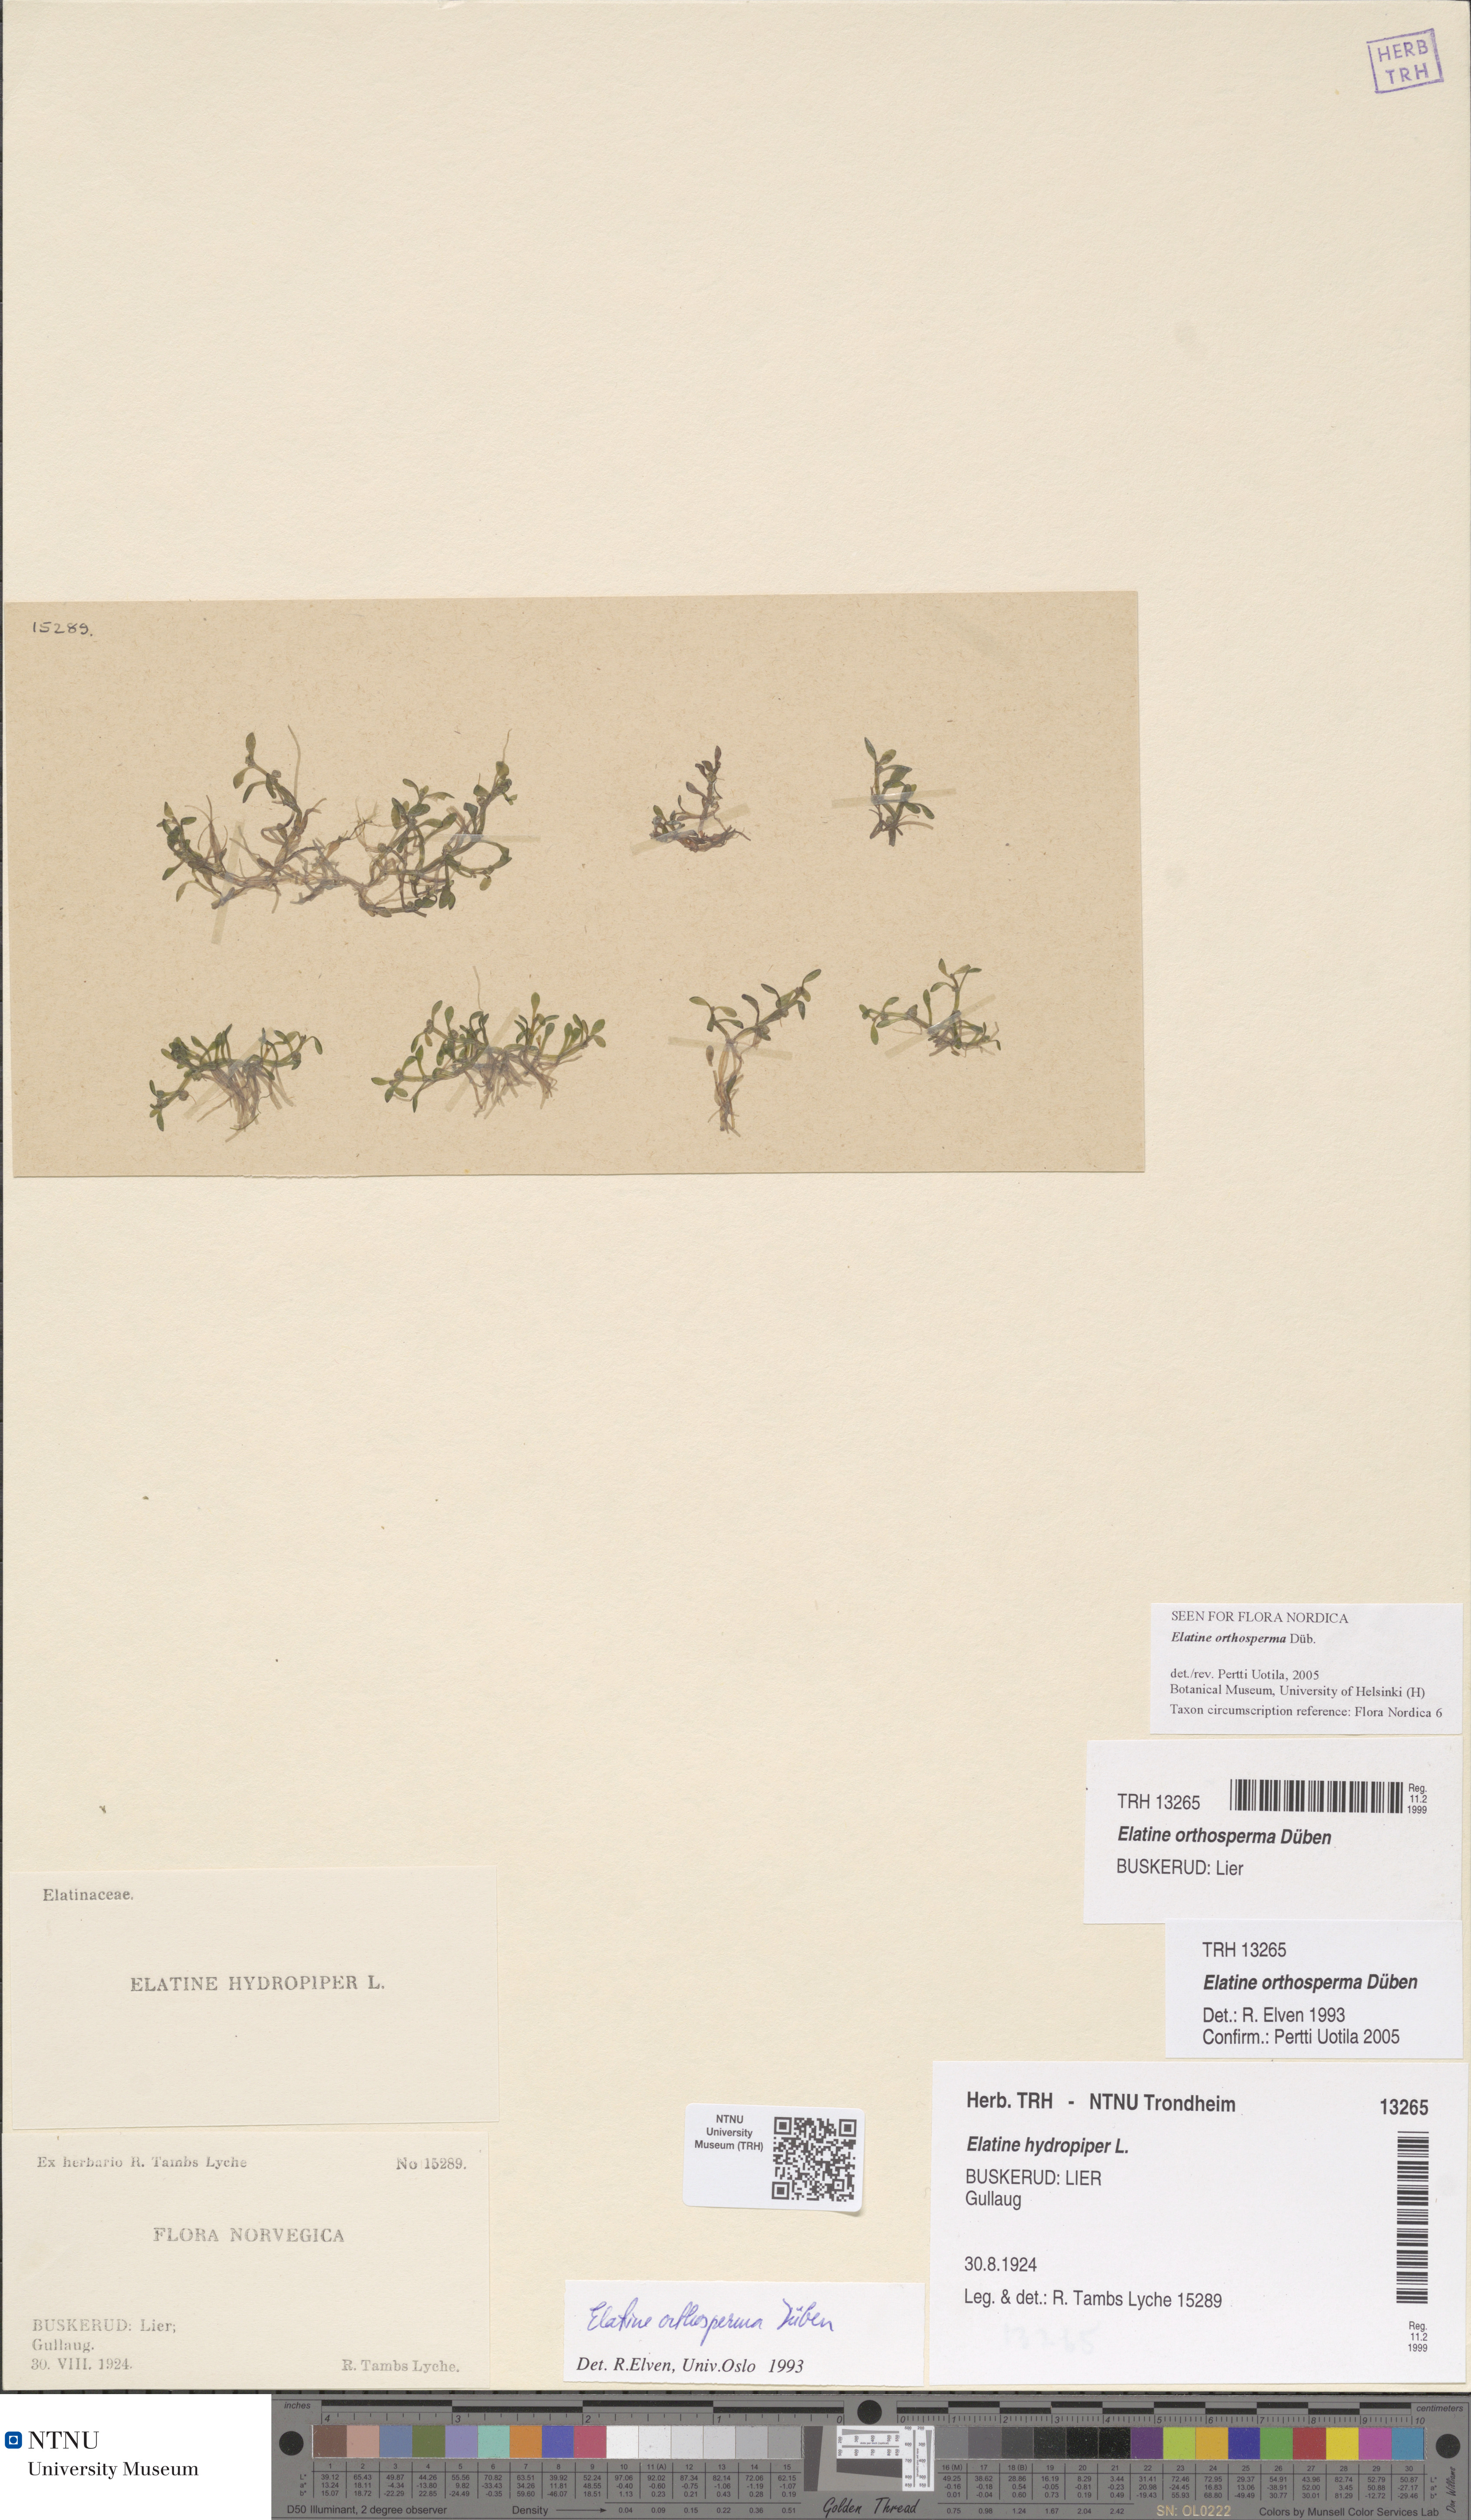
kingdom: Plantae
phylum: Tracheophyta
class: Magnoliopsida
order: Malpighiales
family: Elatinaceae
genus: Elatine
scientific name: Elatine orthosperma
